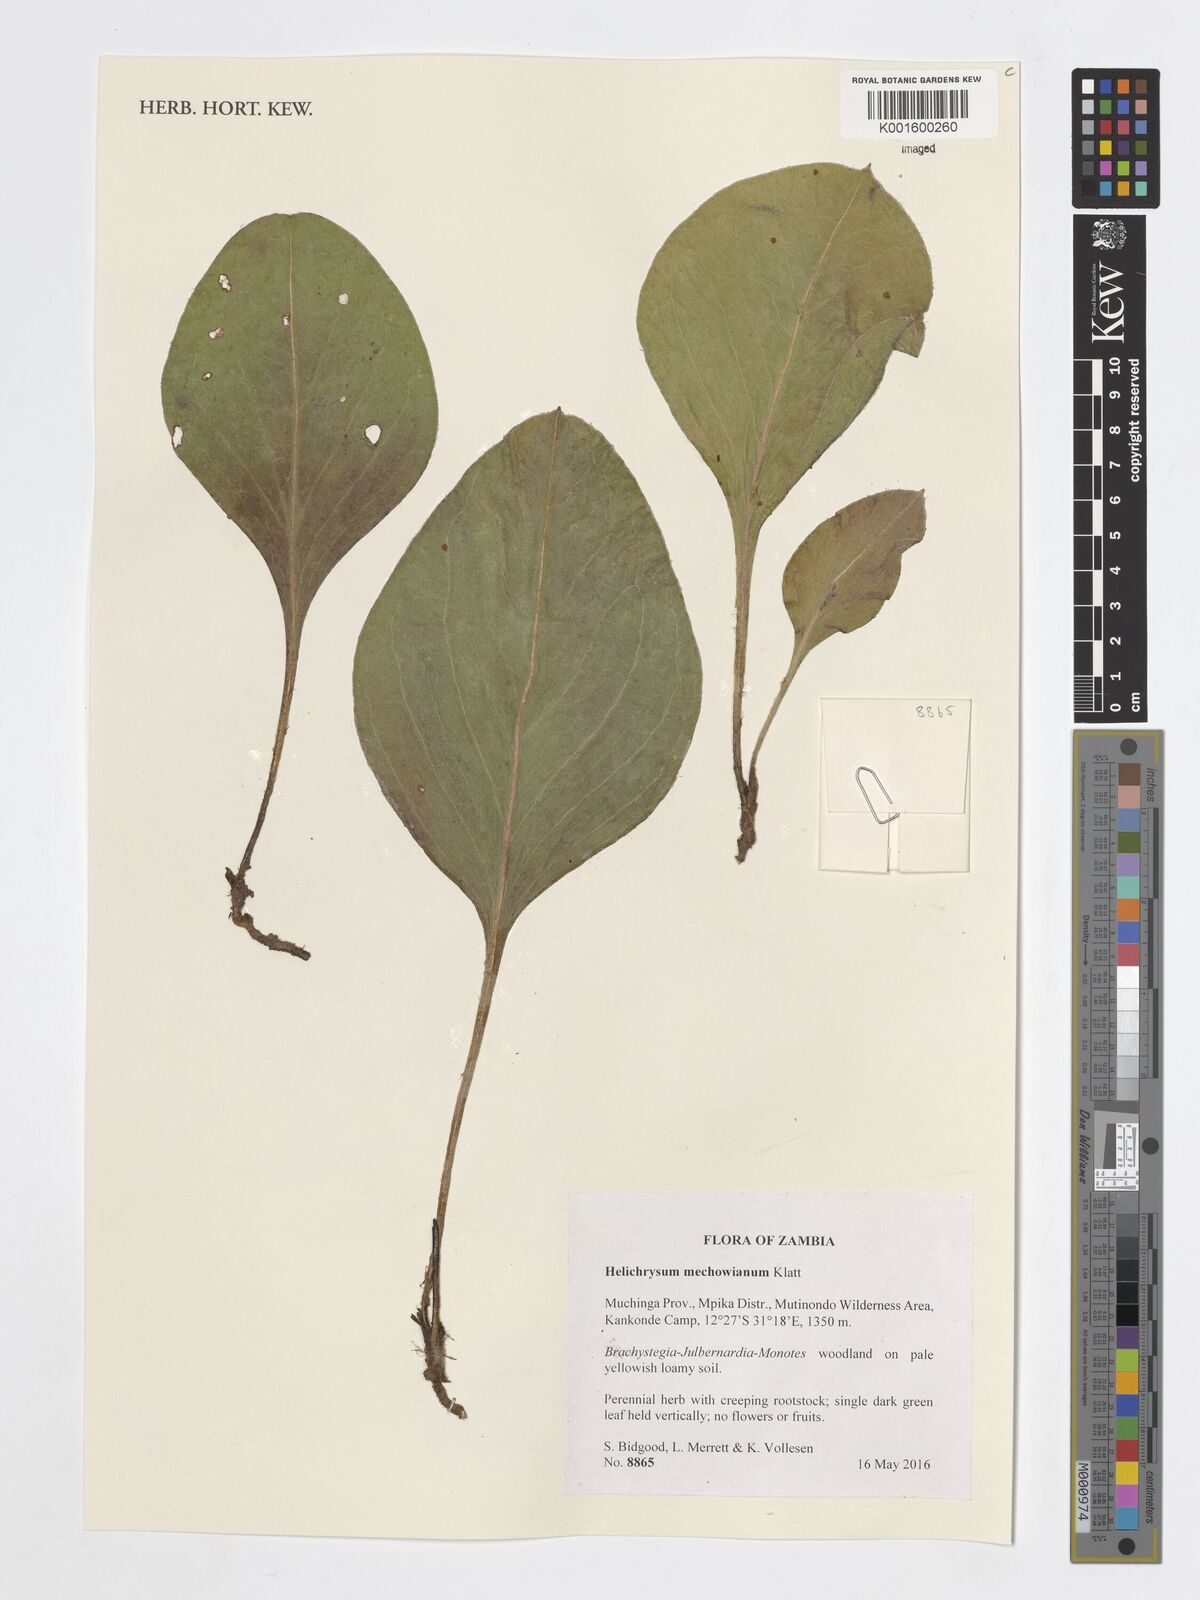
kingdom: Plantae
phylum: Tracheophyta
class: Magnoliopsida
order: Asterales
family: Asteraceae
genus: Helichrysum
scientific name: Helichrysum mechowianum
